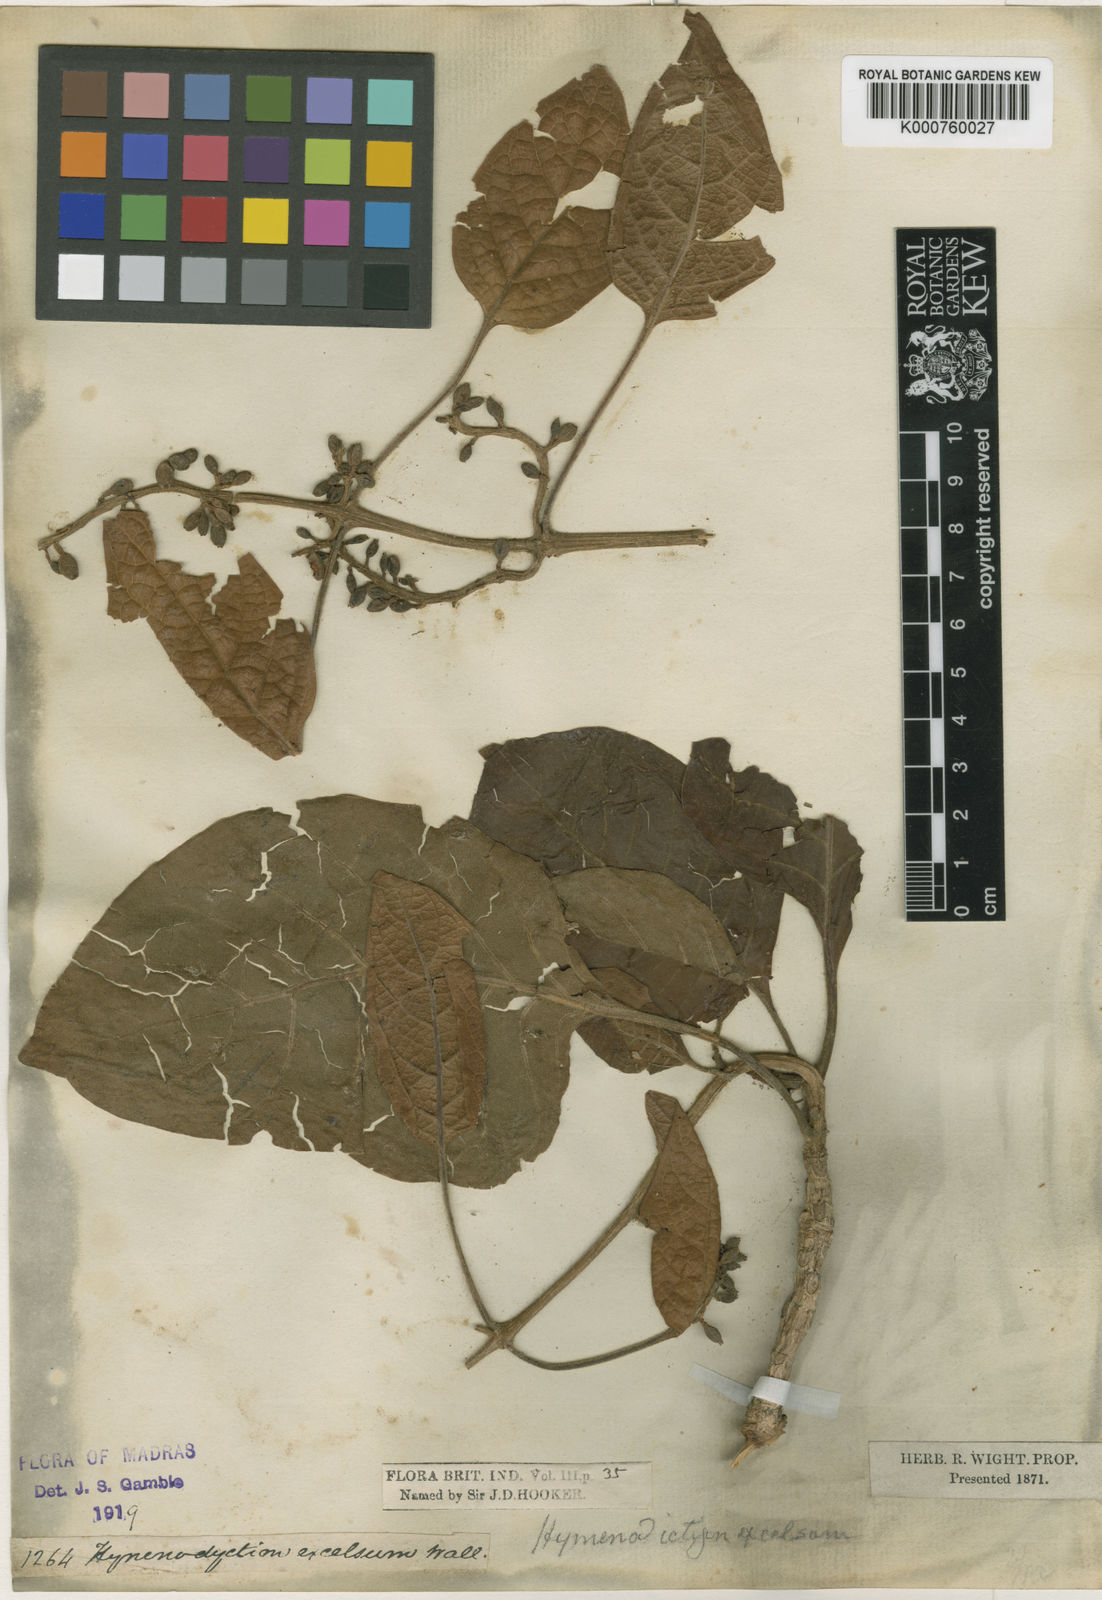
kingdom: Plantae
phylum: Tracheophyta
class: Magnoliopsida
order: Gentianales
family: Rubiaceae
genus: Hymenodictyon
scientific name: Hymenodictyon orixense
